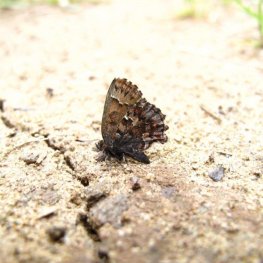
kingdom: Animalia
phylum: Arthropoda
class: Insecta
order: Lepidoptera
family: Lycaenidae
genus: Incisalia
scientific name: Incisalia lanoraieensis
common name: Bog Elfin
